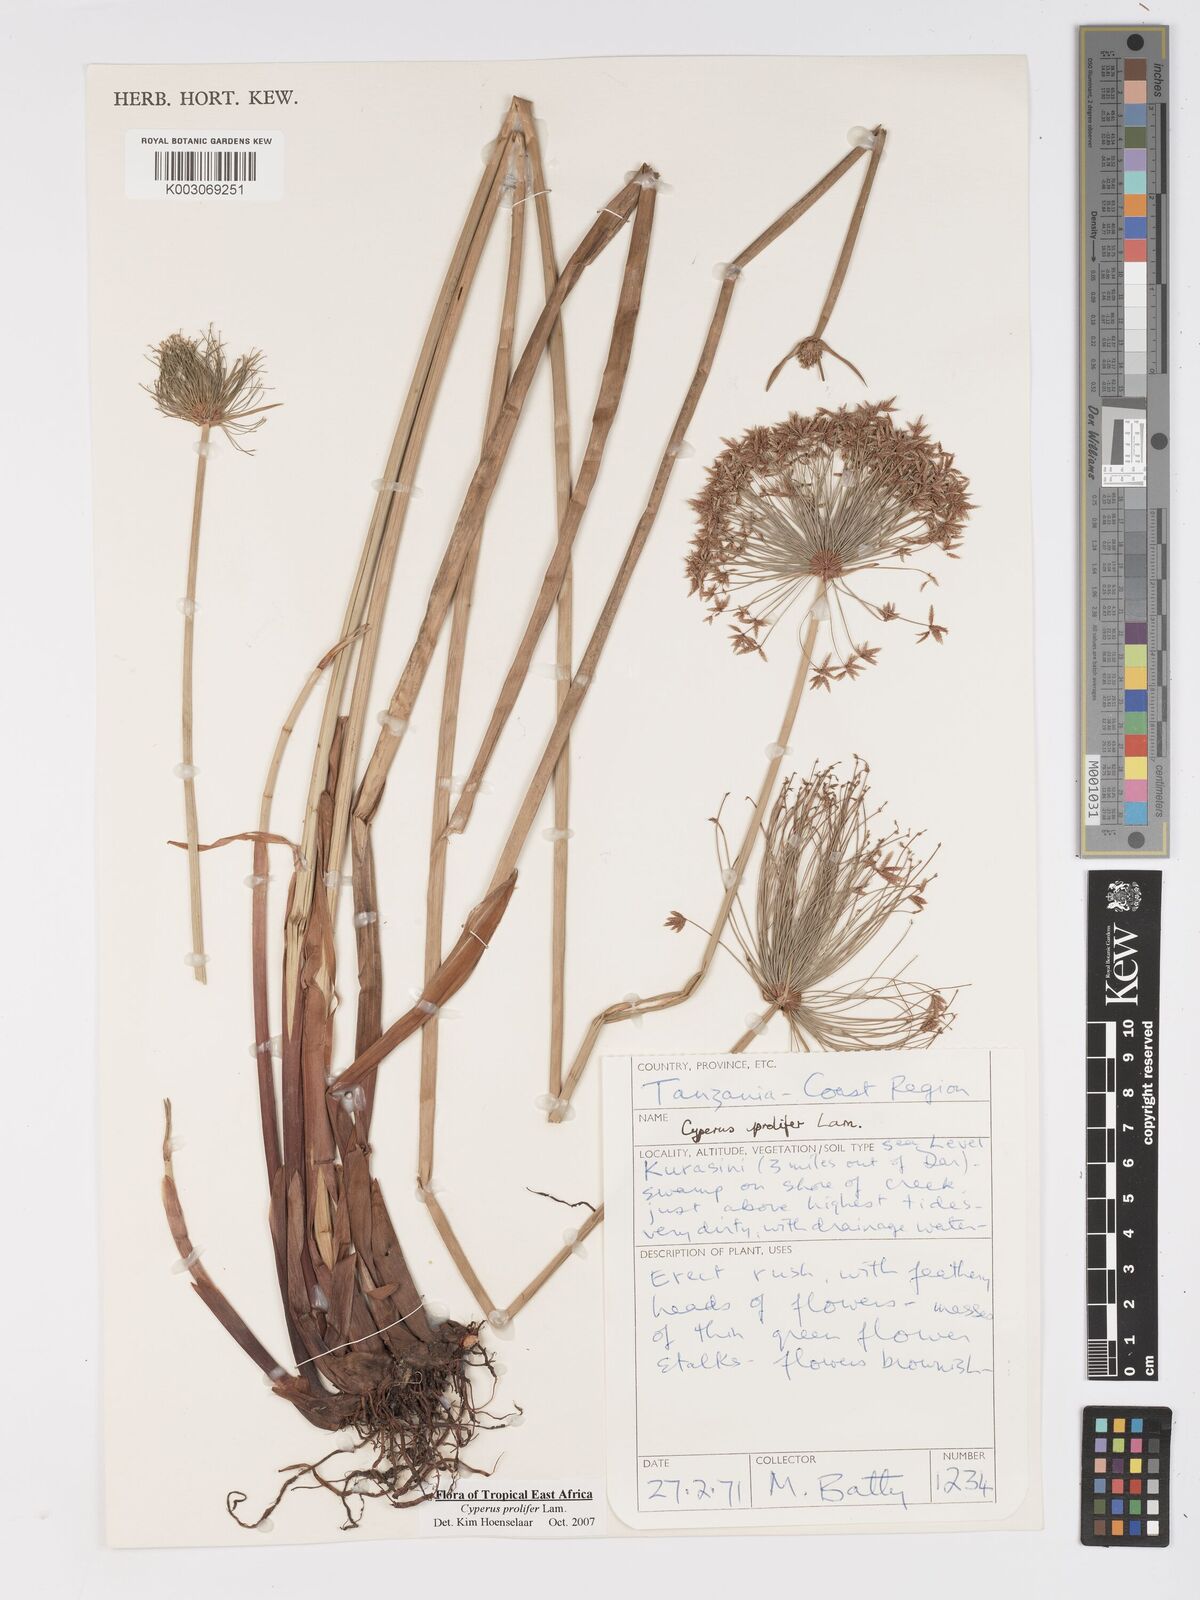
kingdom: Plantae
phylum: Tracheophyta
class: Liliopsida
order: Poales
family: Cyperaceae
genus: Cyperus
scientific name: Cyperus prolifer
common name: Miniature flatsedge
